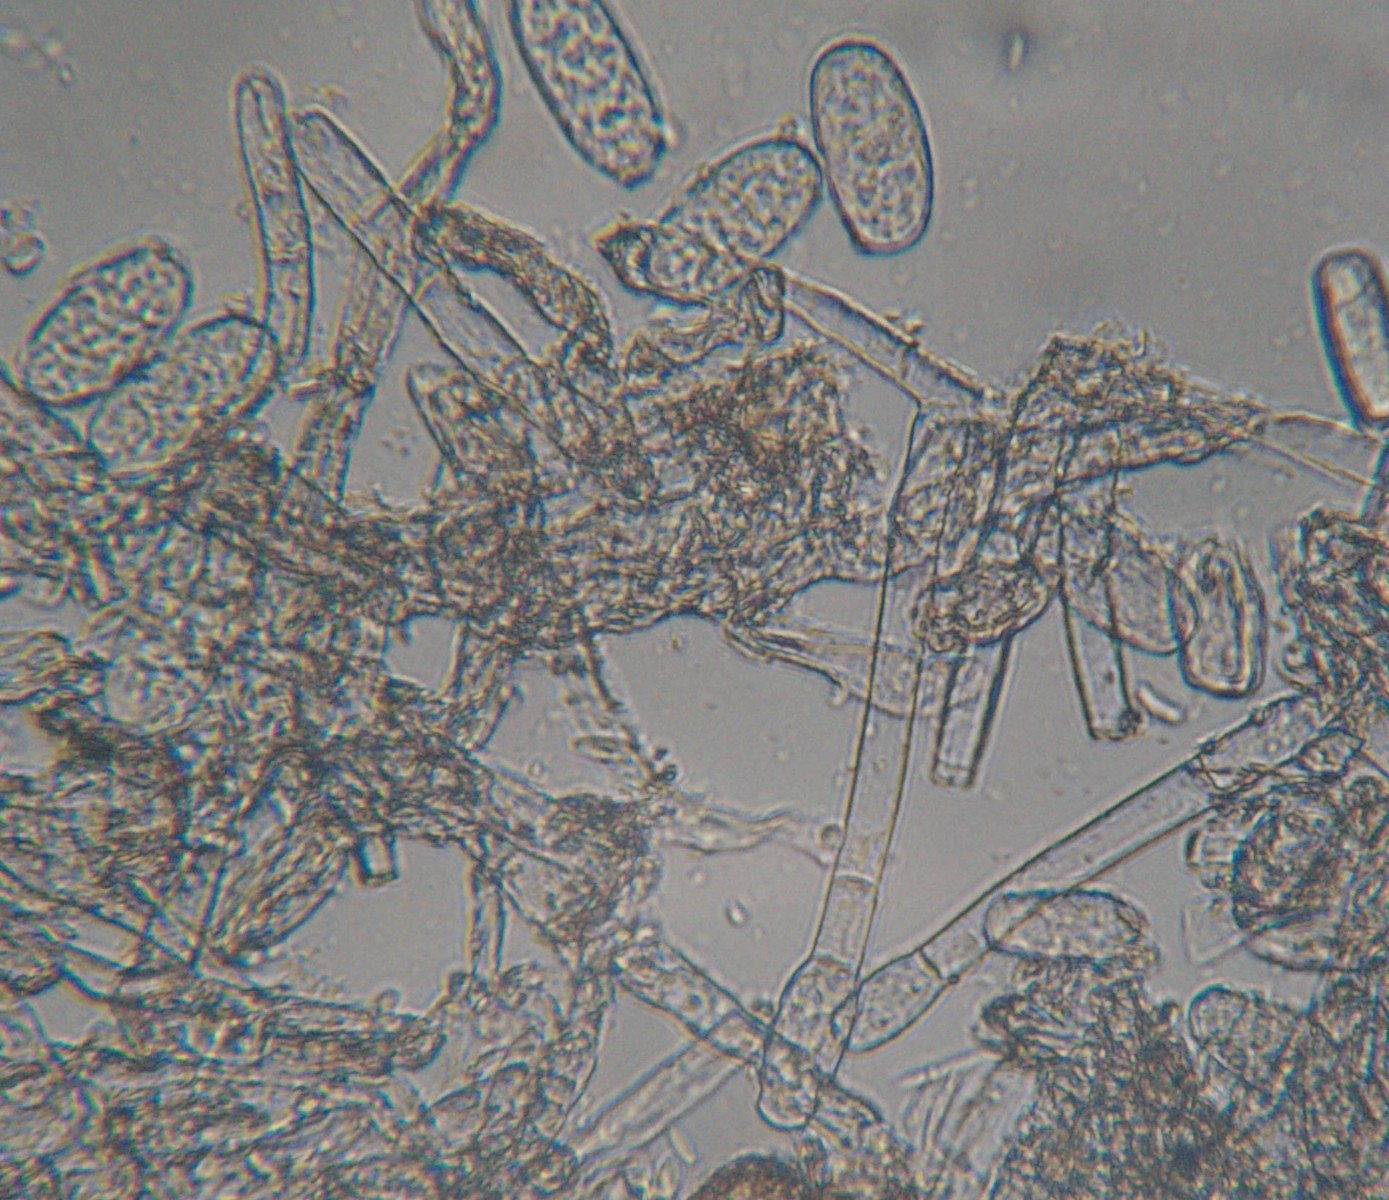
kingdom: Fungi
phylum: Ascomycota
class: Leotiomycetes
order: Helotiales
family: Erysiphaceae
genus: Erysiphe
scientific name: Erysiphe heraclei
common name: skærmplante-meldug
